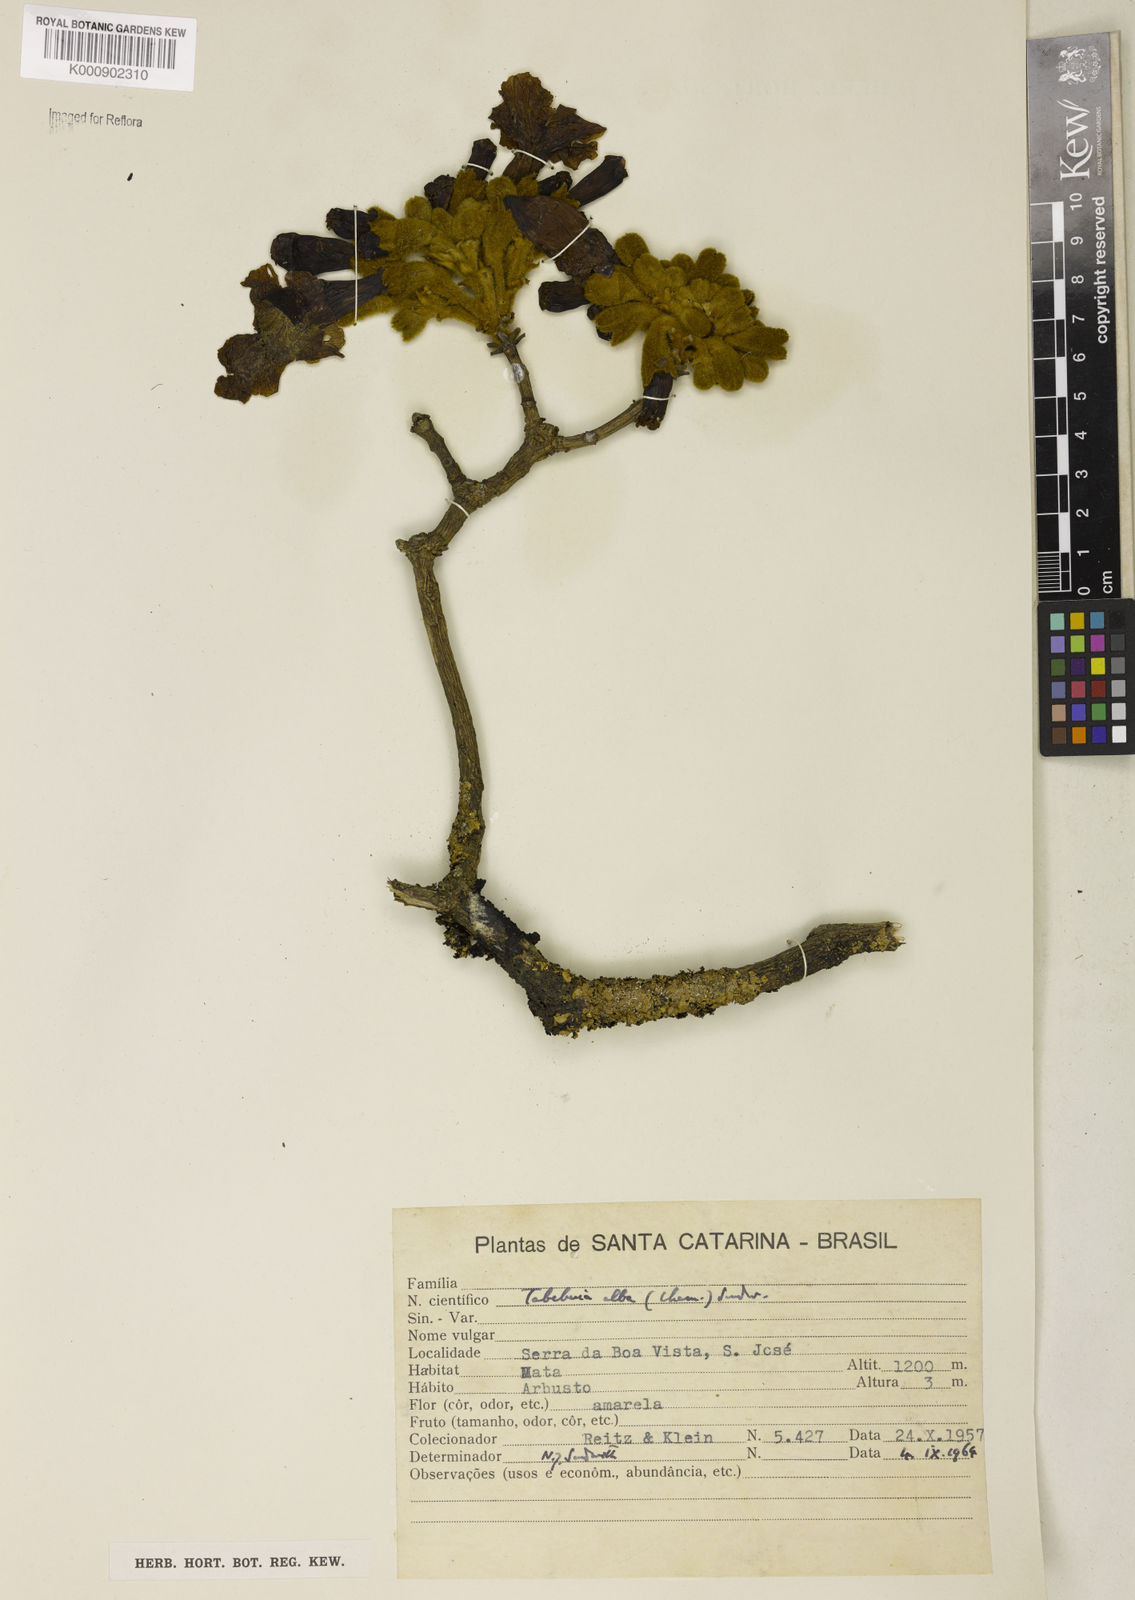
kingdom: Plantae
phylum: Tracheophyta
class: Magnoliopsida
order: Lamiales
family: Bignoniaceae
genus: Handroanthus
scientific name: Handroanthus albus
